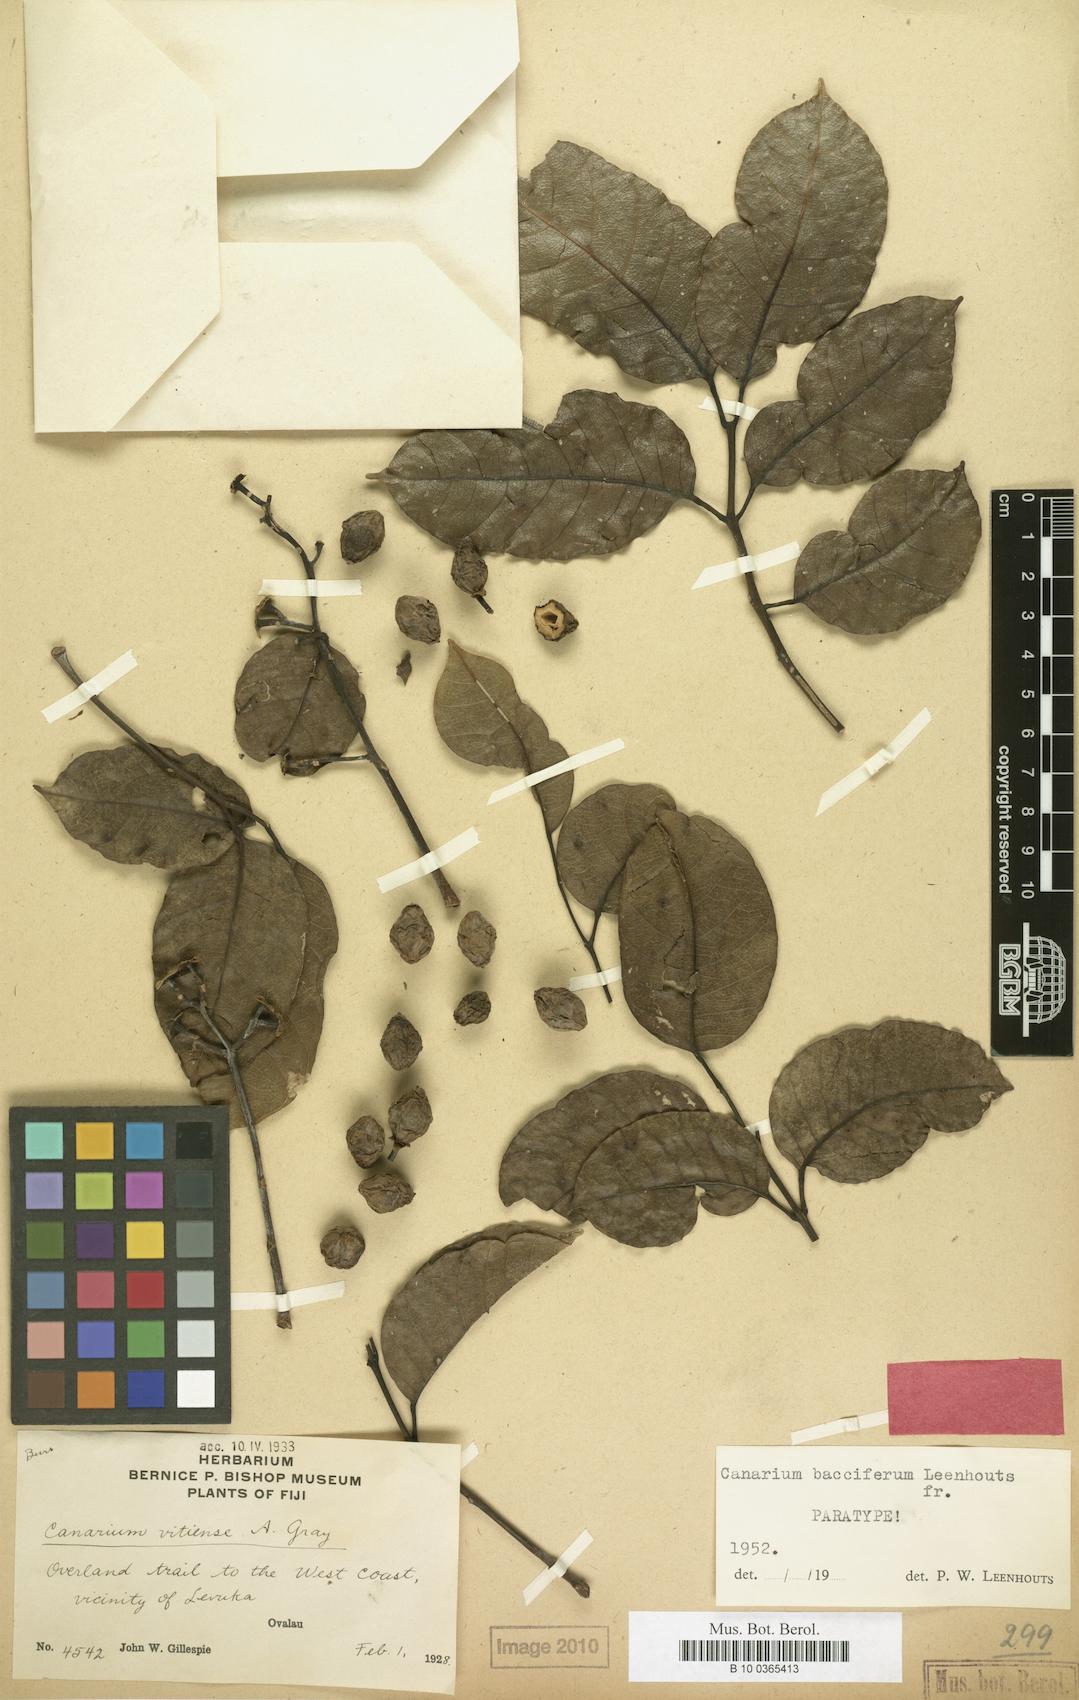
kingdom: Plantae
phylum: Tracheophyta
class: Magnoliopsida
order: Sapindales
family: Burseraceae
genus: Canarium
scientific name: Canarium vitiense
